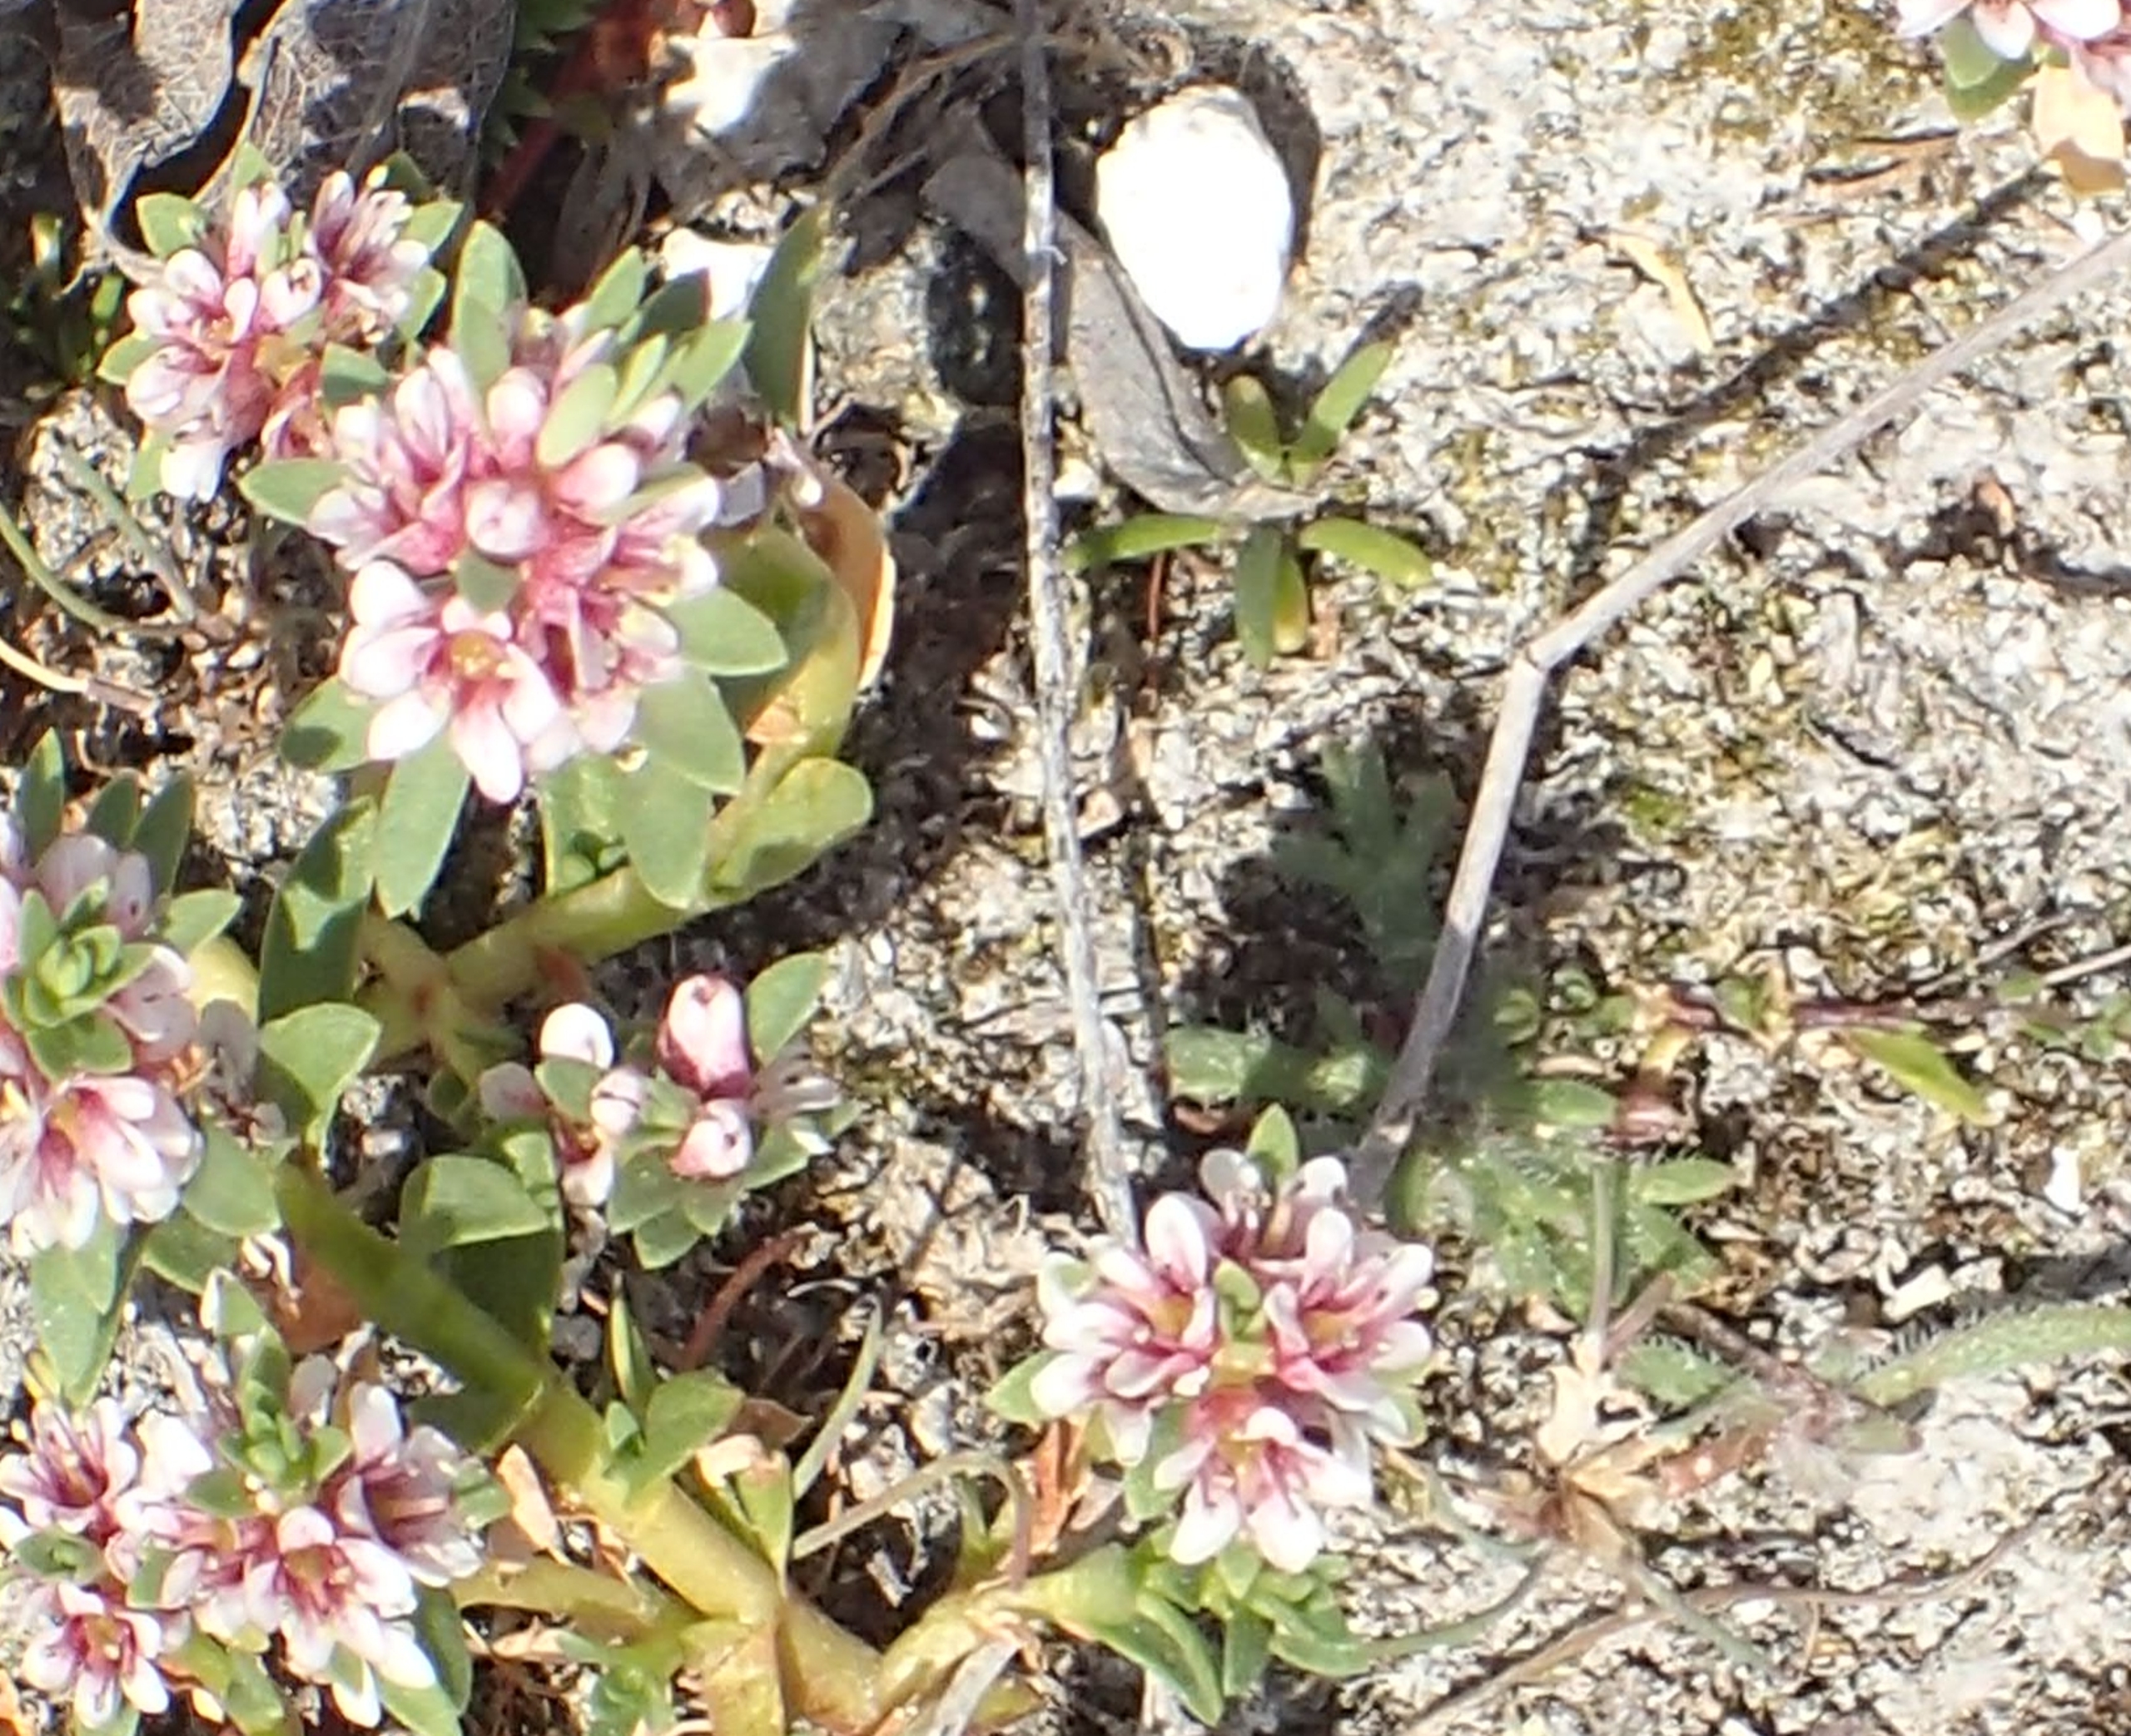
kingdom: Plantae
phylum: Tracheophyta
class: Magnoliopsida
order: Ericales
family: Primulaceae
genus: Lysimachia
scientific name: Lysimachia maritima
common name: Sandkryb
